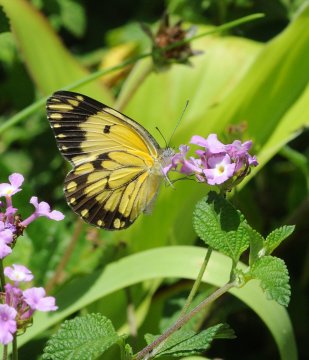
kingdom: Animalia
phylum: Arthropoda
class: Insecta
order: Lepidoptera
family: Pieridae
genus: Belenois
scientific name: Belenois creona
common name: African Caper
